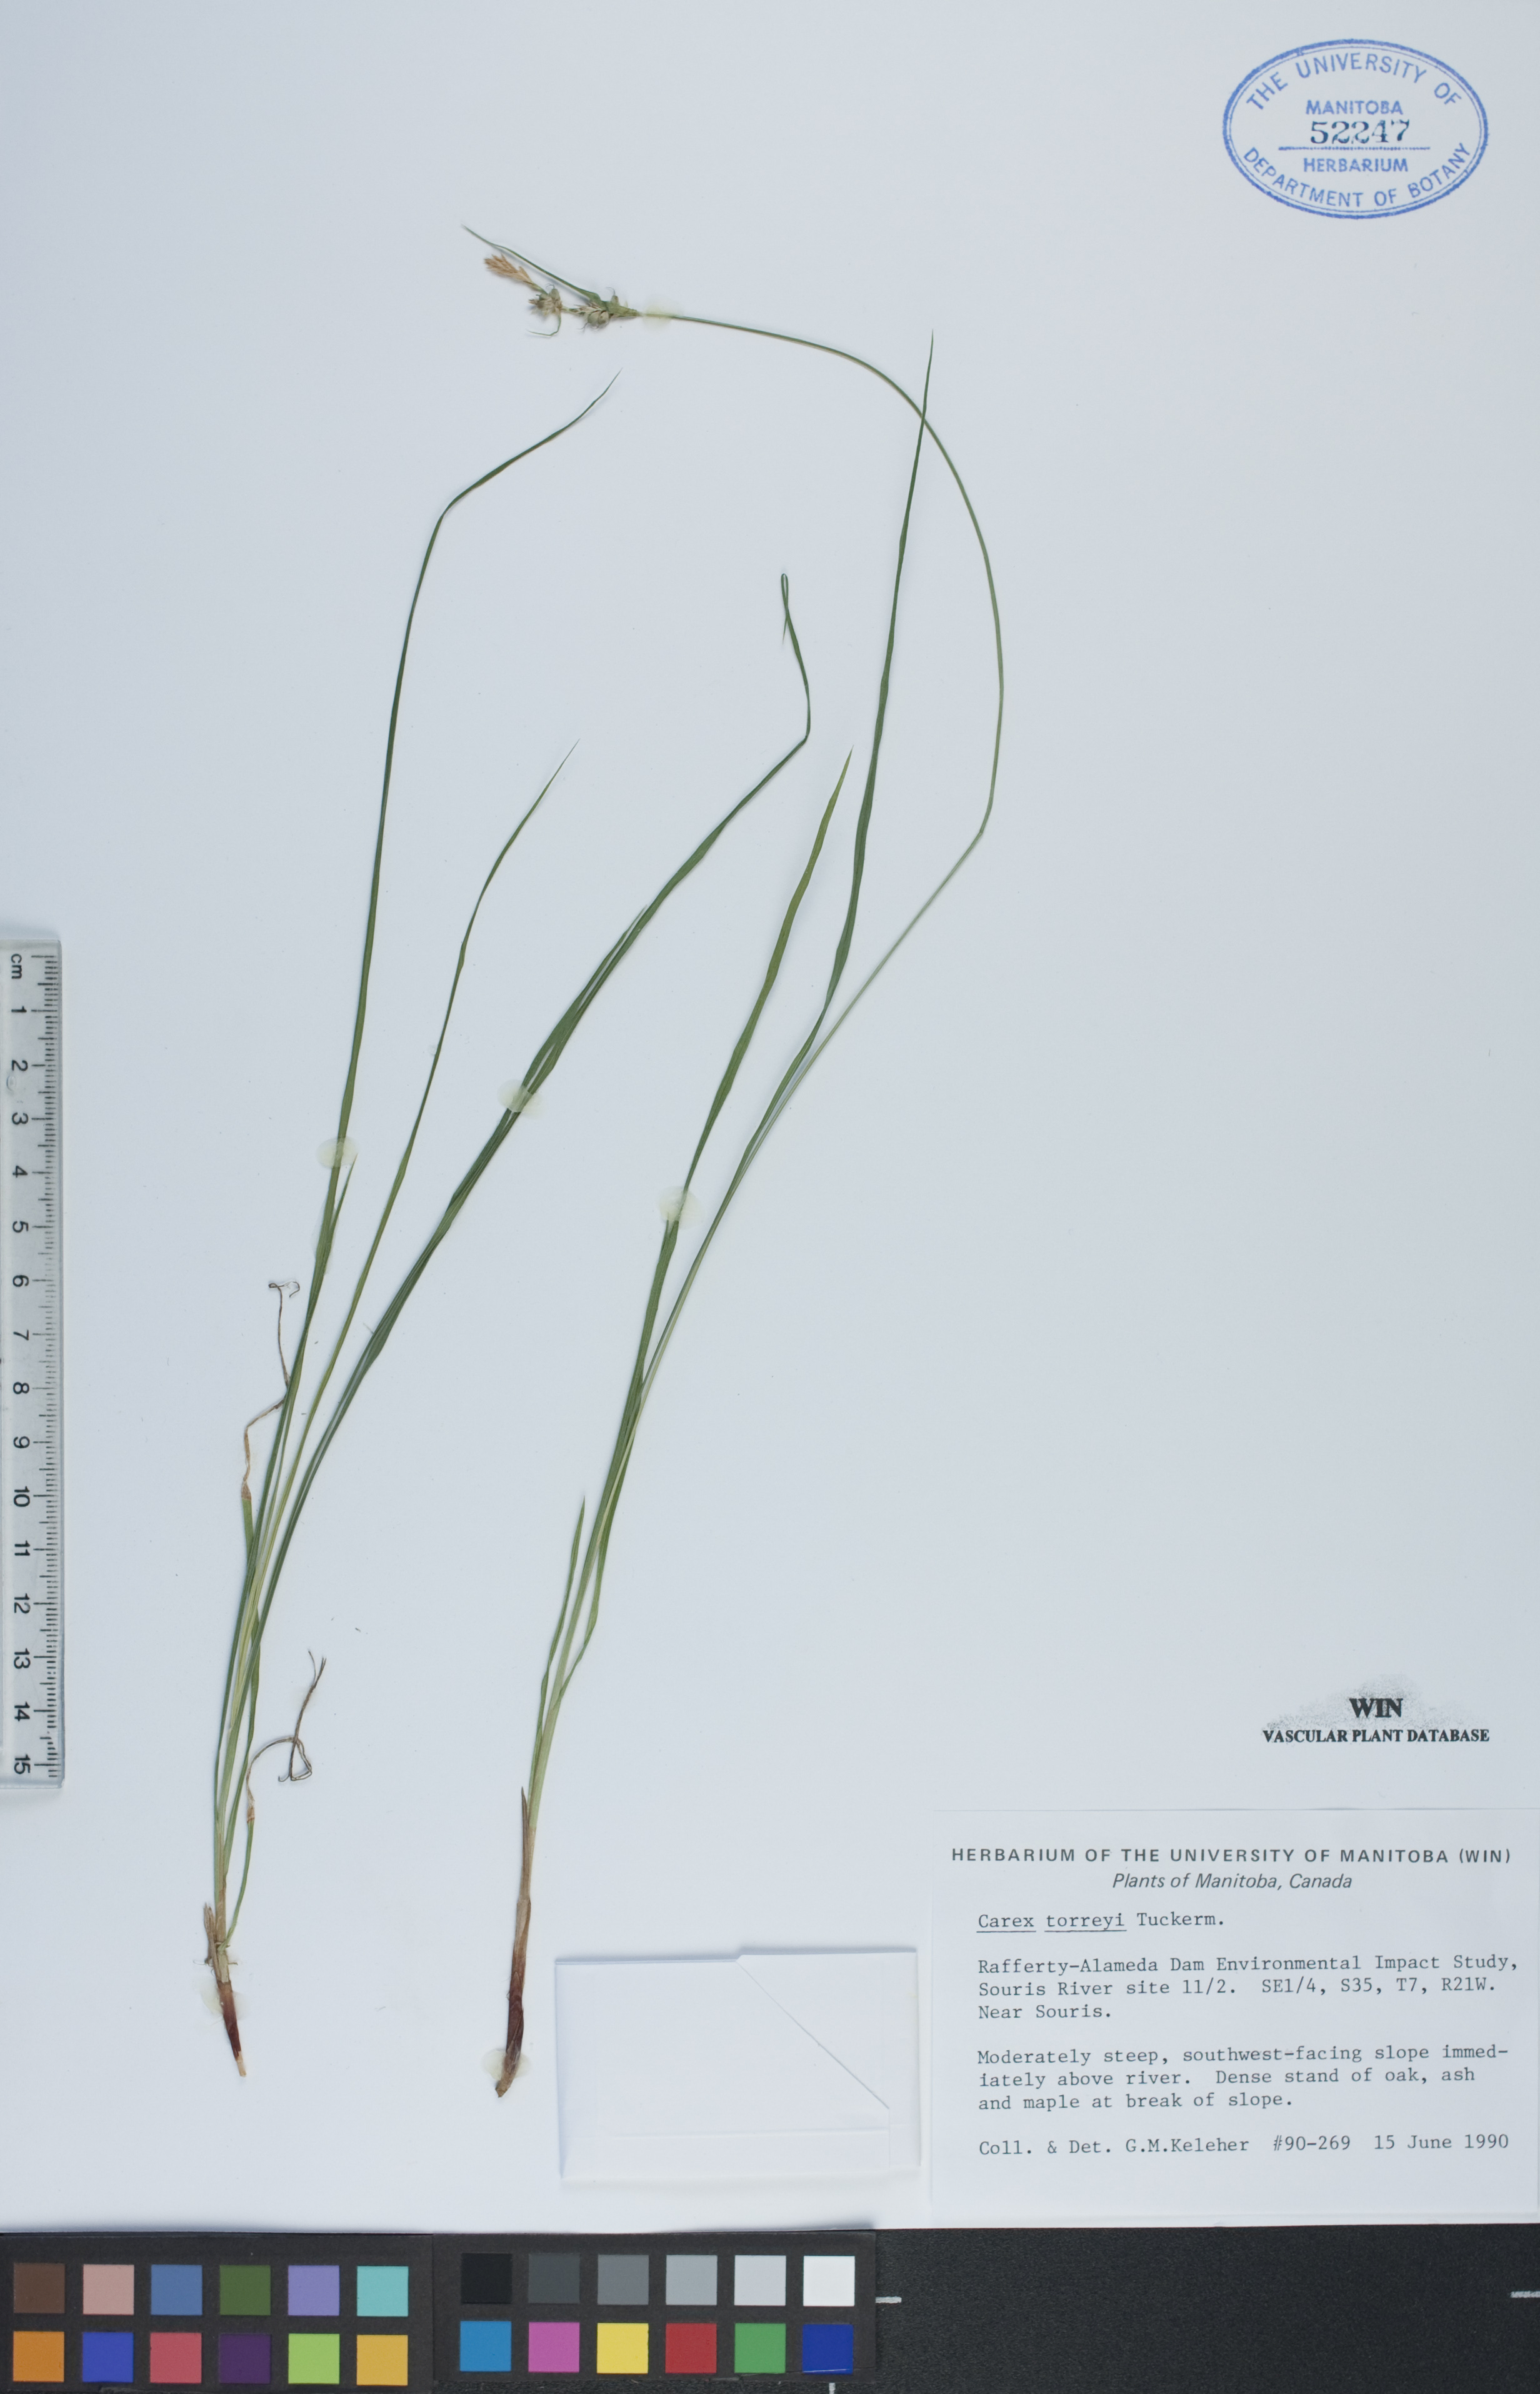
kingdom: Plantae
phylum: Tracheophyta
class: Liliopsida
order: Poales
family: Cyperaceae
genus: Carex
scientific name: Carex torreyi
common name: Torrey's sedge
